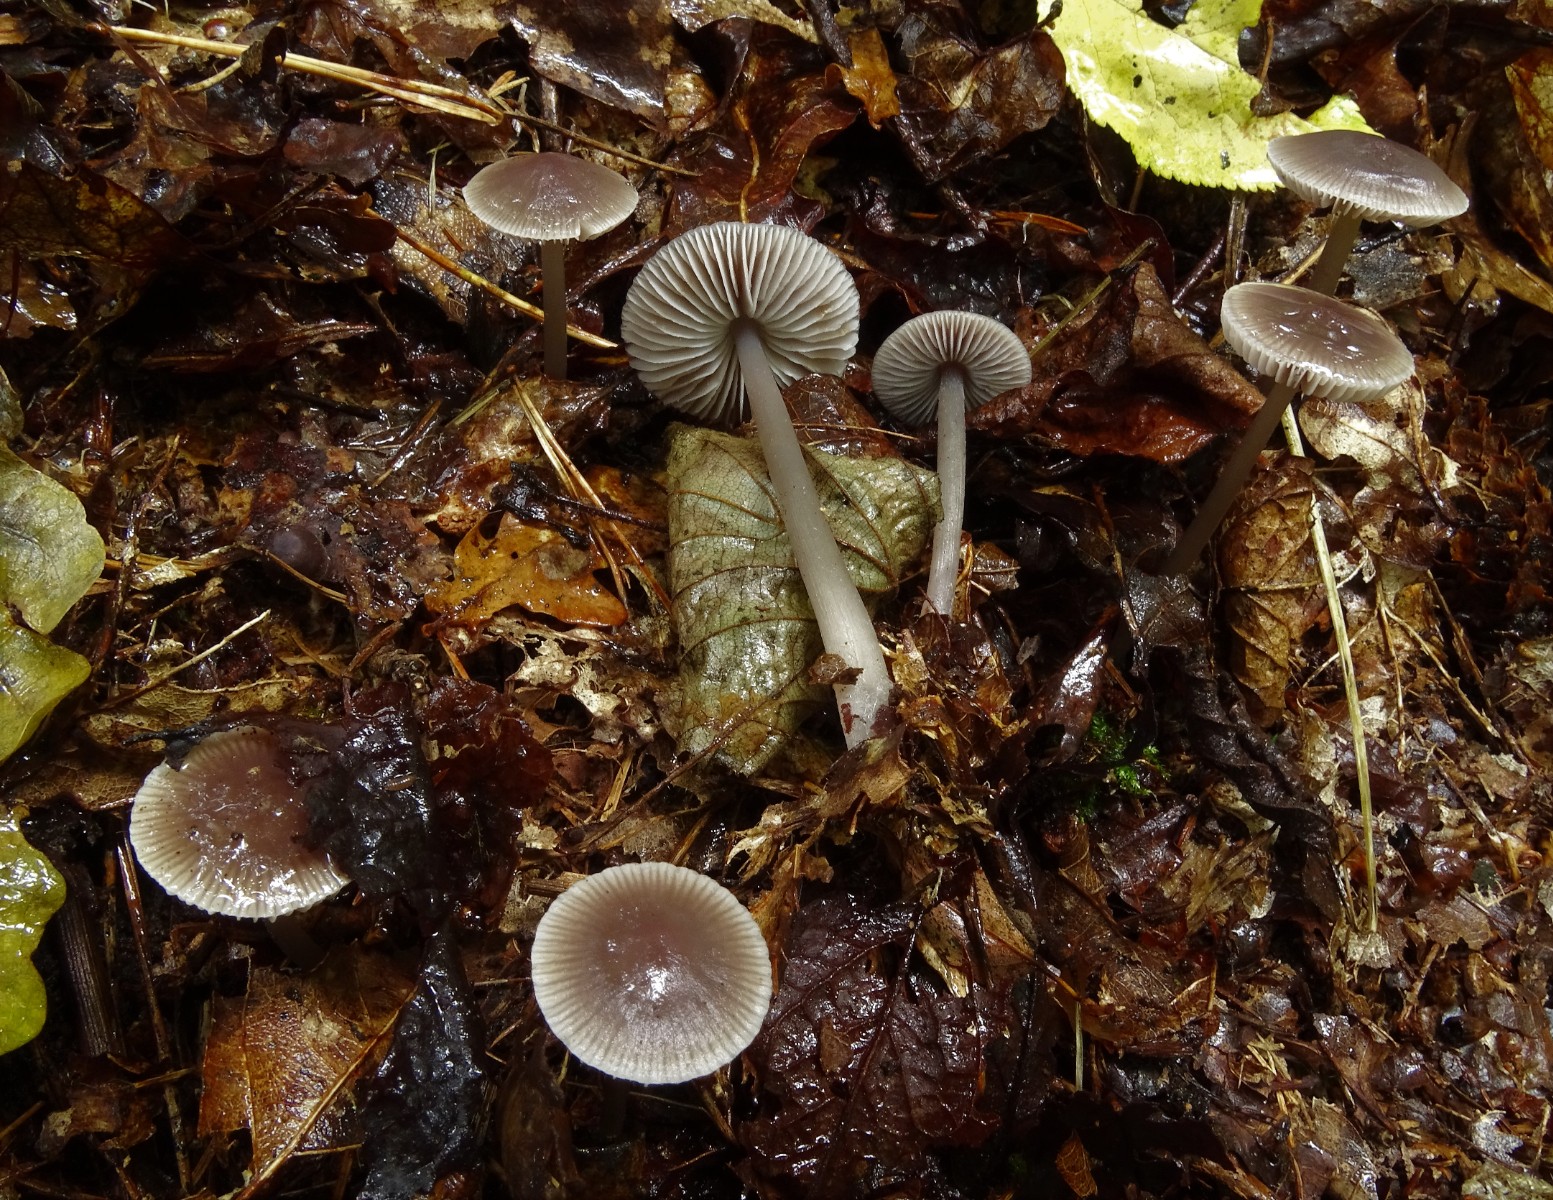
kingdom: Fungi
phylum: Basidiomycota
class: Agaricomycetes
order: Agaricales
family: Mycenaceae
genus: Mycena
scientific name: Mycena
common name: huesvamp
